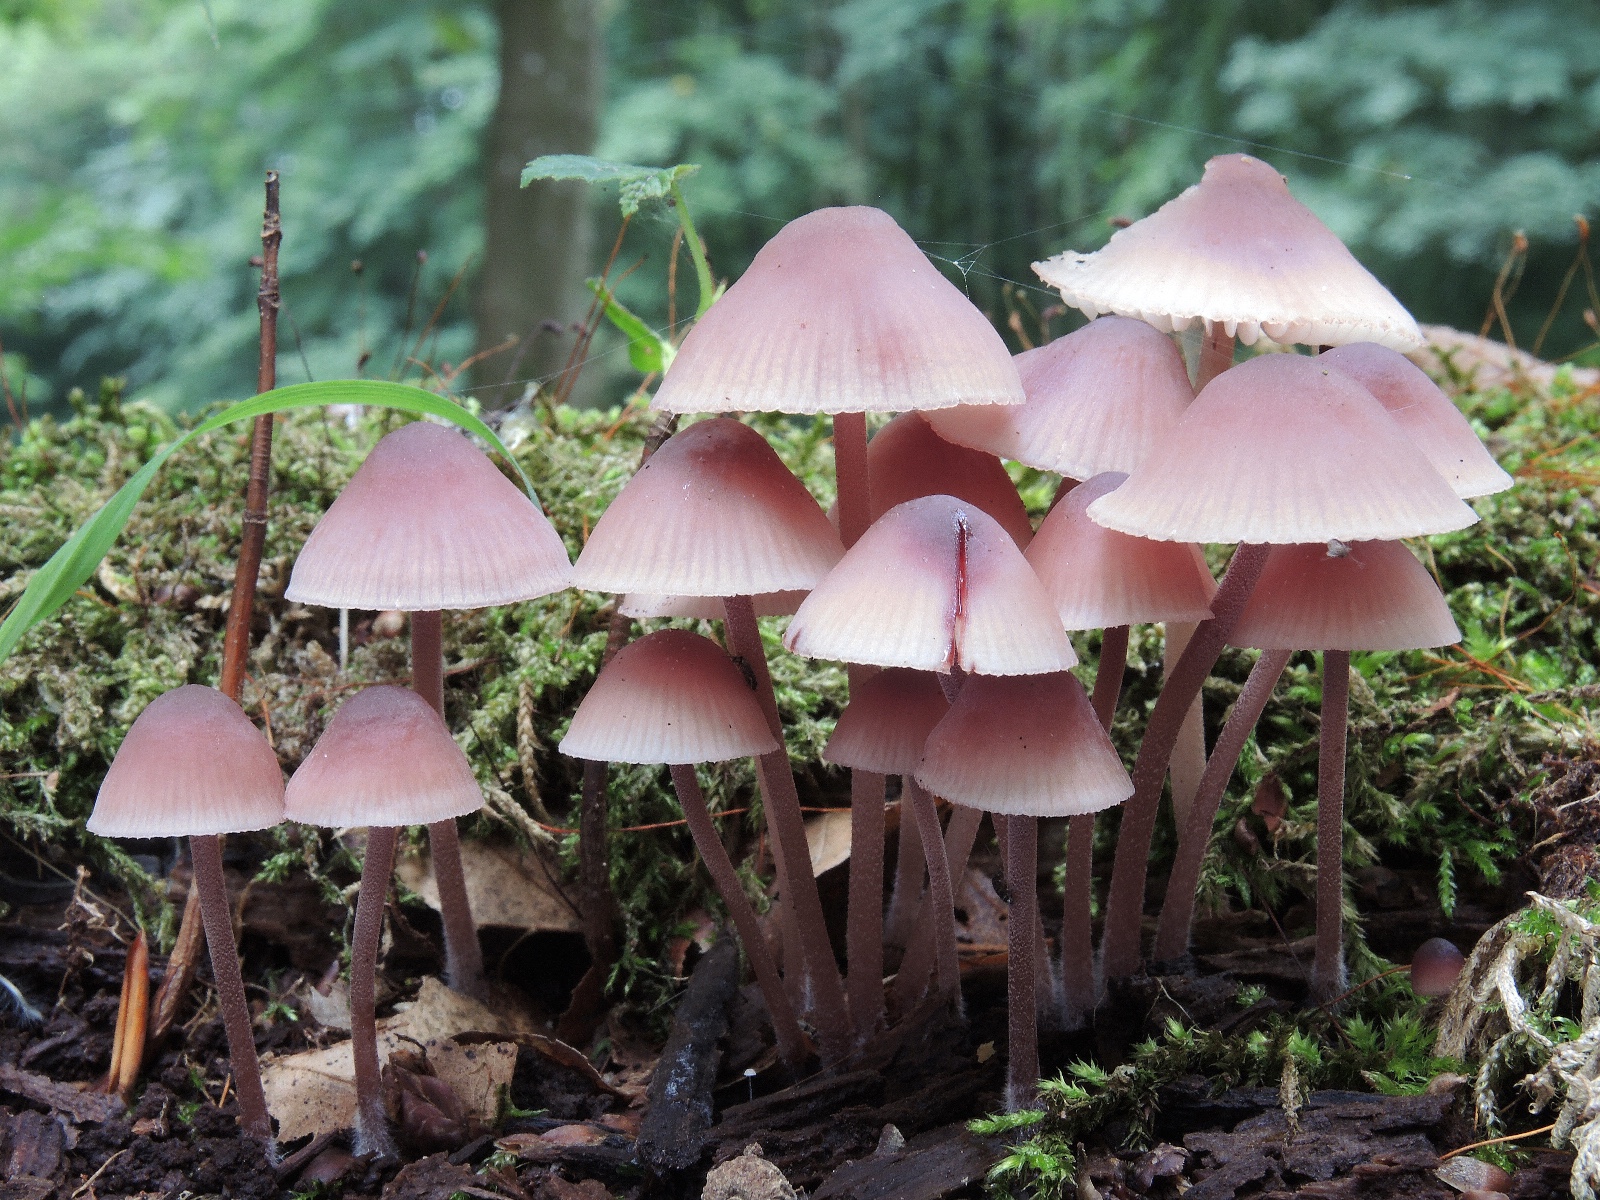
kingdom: Fungi
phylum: Basidiomycota
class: Agaricomycetes
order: Agaricales
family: Mycenaceae
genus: Mycena
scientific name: Mycena haematopus
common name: blødende huesvamp
